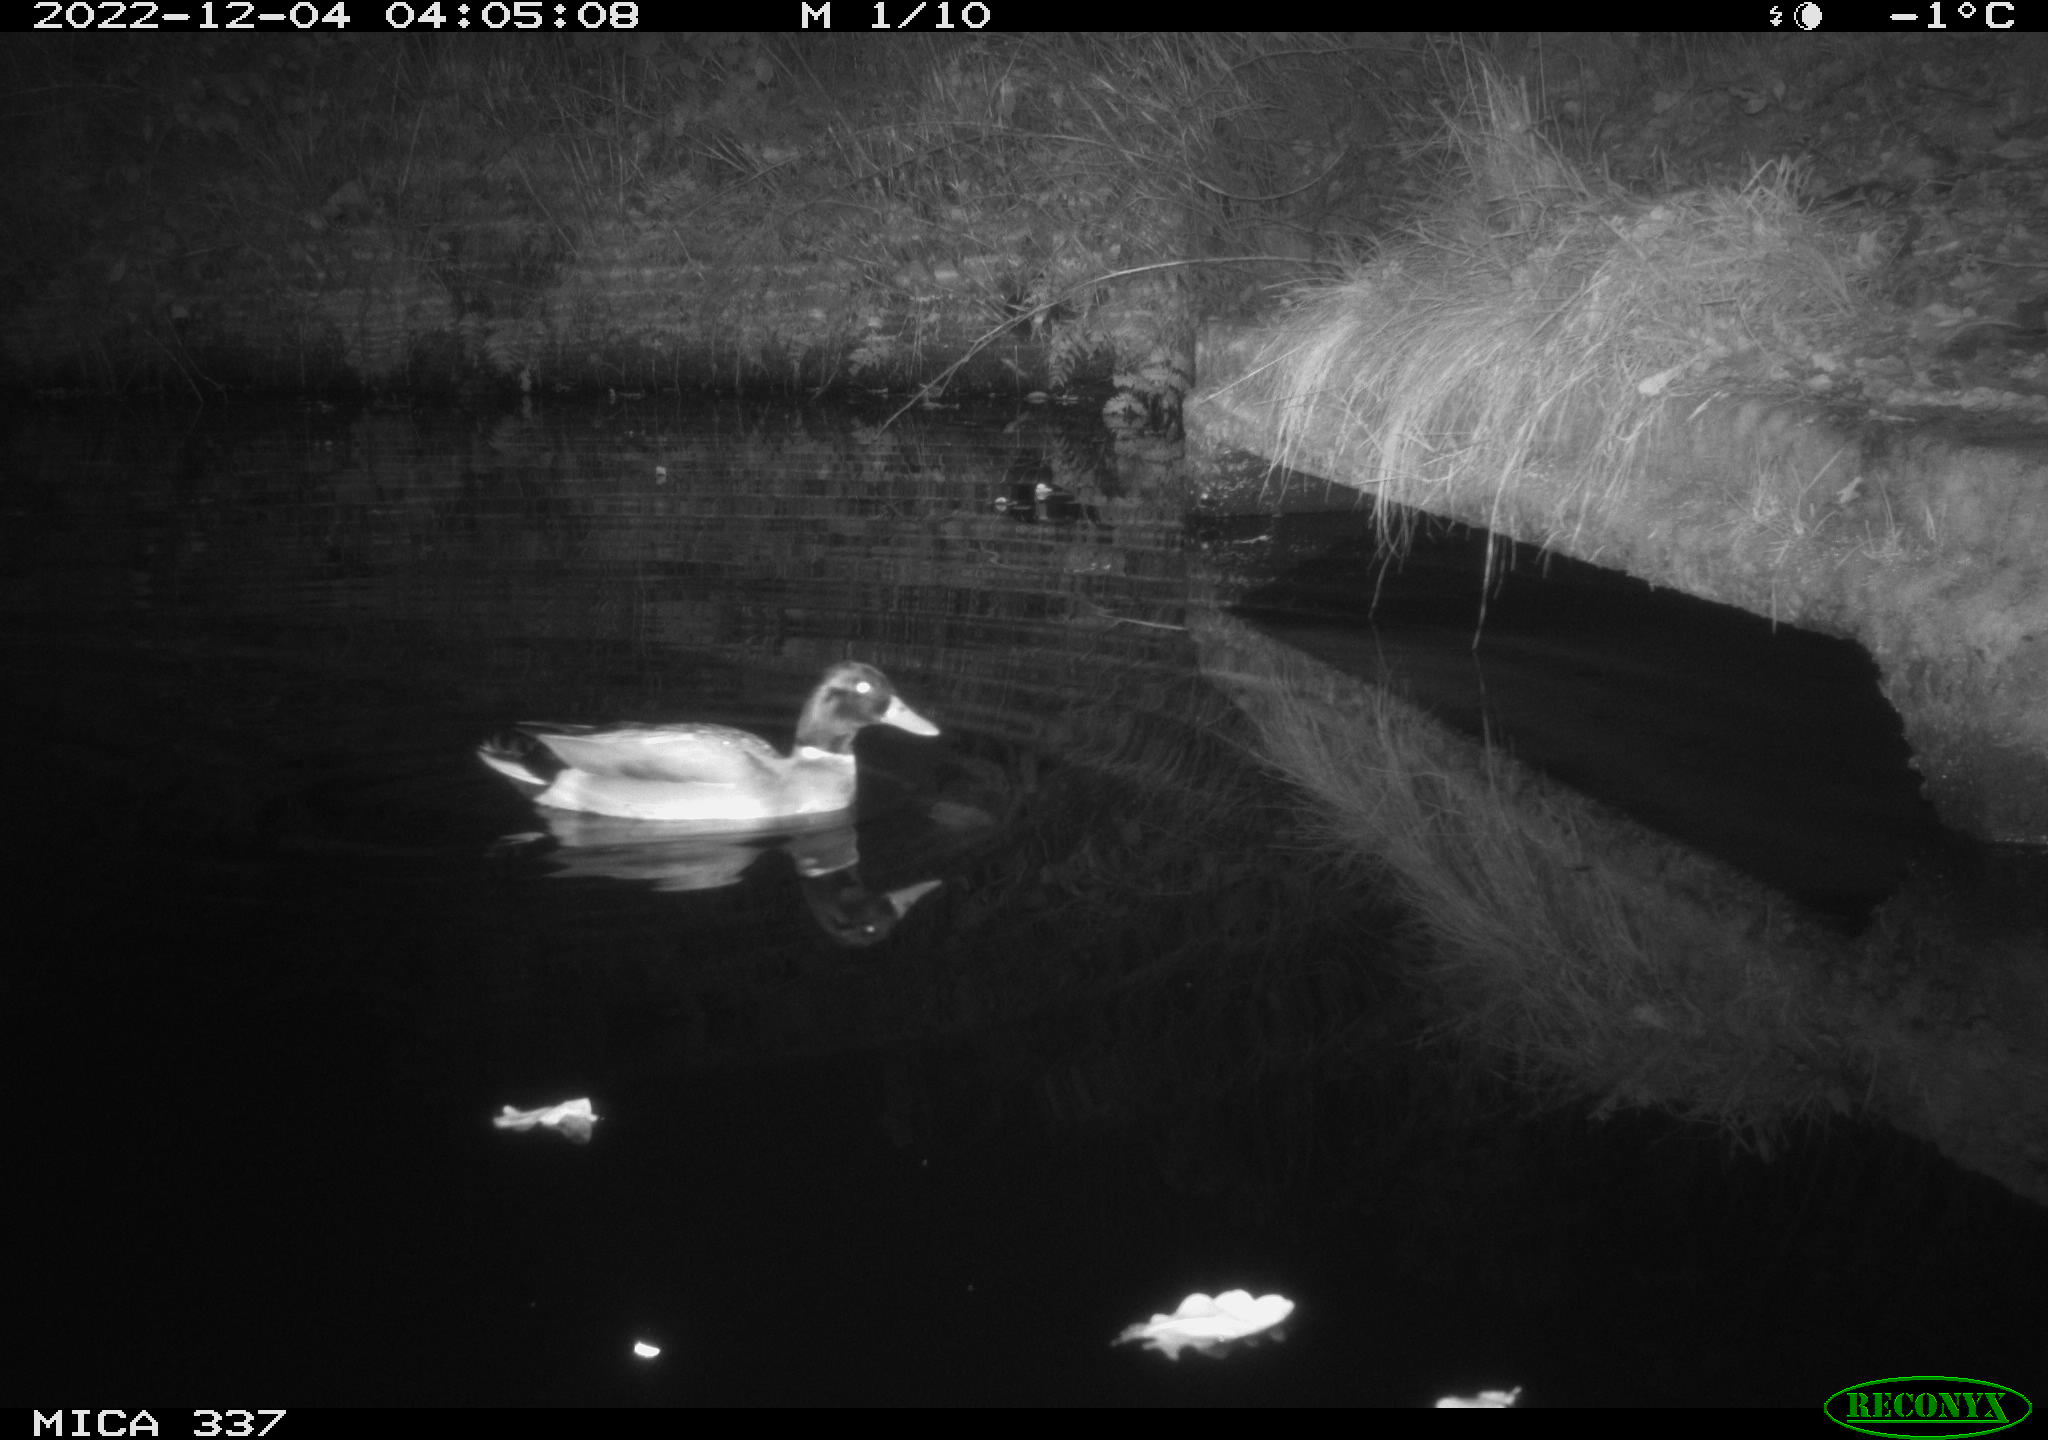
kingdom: Animalia
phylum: Chordata
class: Aves
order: Anseriformes
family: Anatidae
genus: Anas
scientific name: Anas platyrhynchos
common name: Mallard
